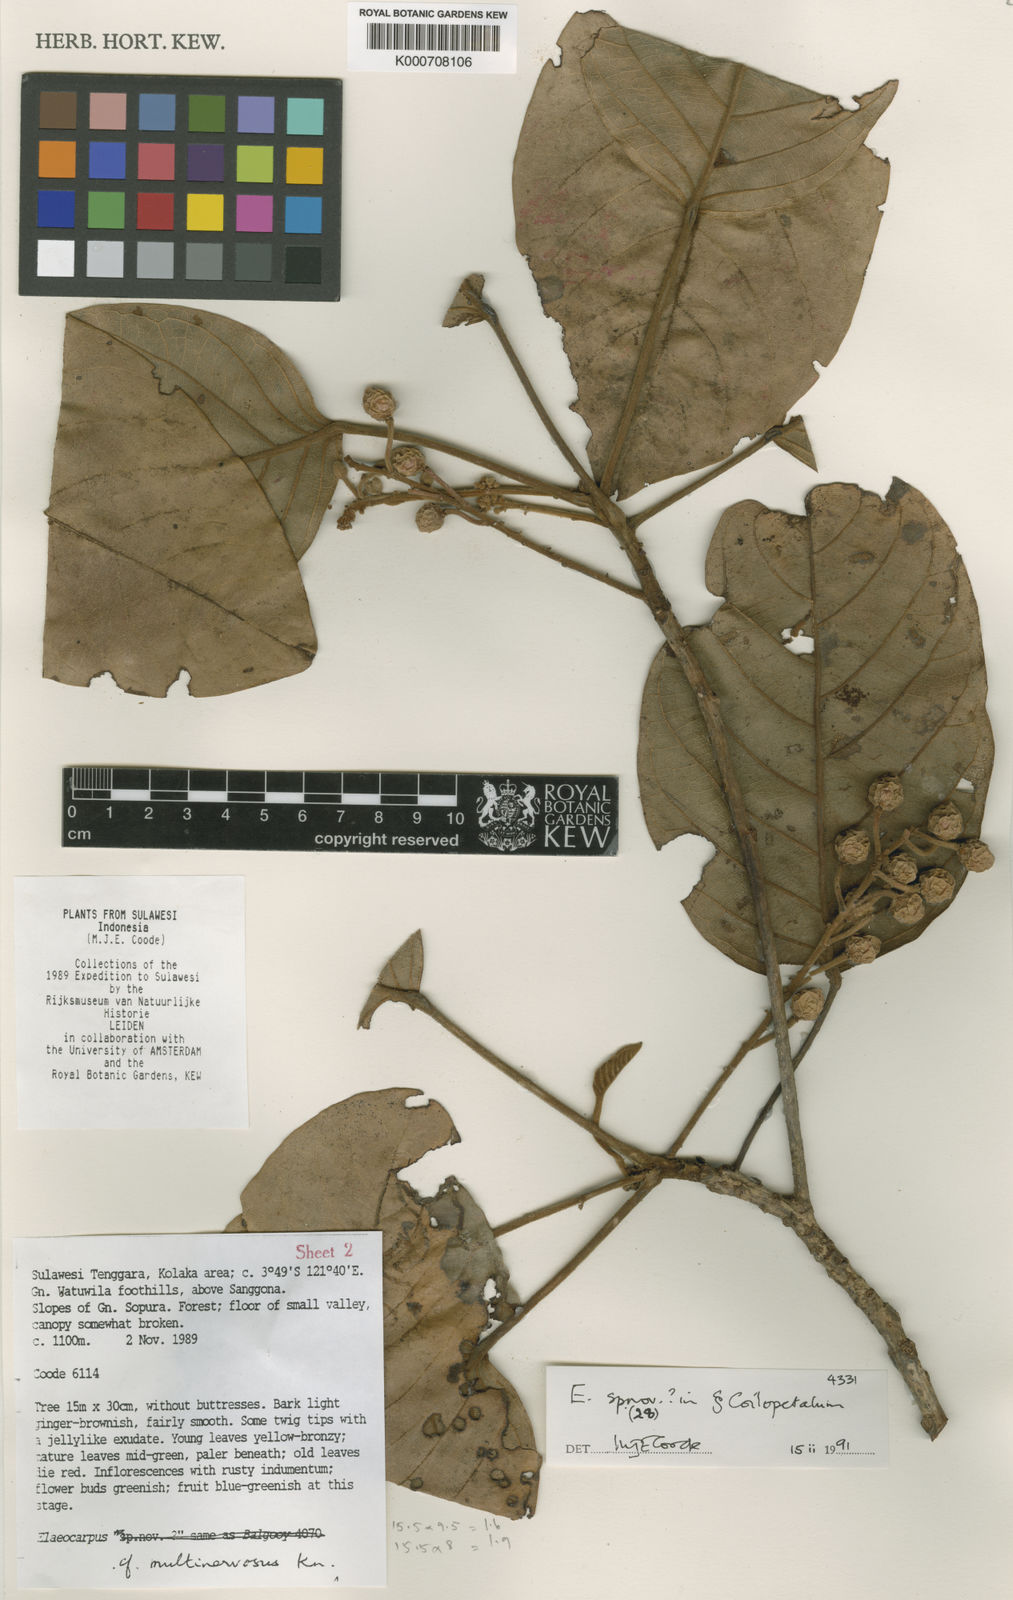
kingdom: Plantae
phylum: Tracheophyta
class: Magnoliopsida
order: Oxalidales
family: Elaeocarpaceae
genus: Elaeocarpus
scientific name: Elaeocarpus erdinii
